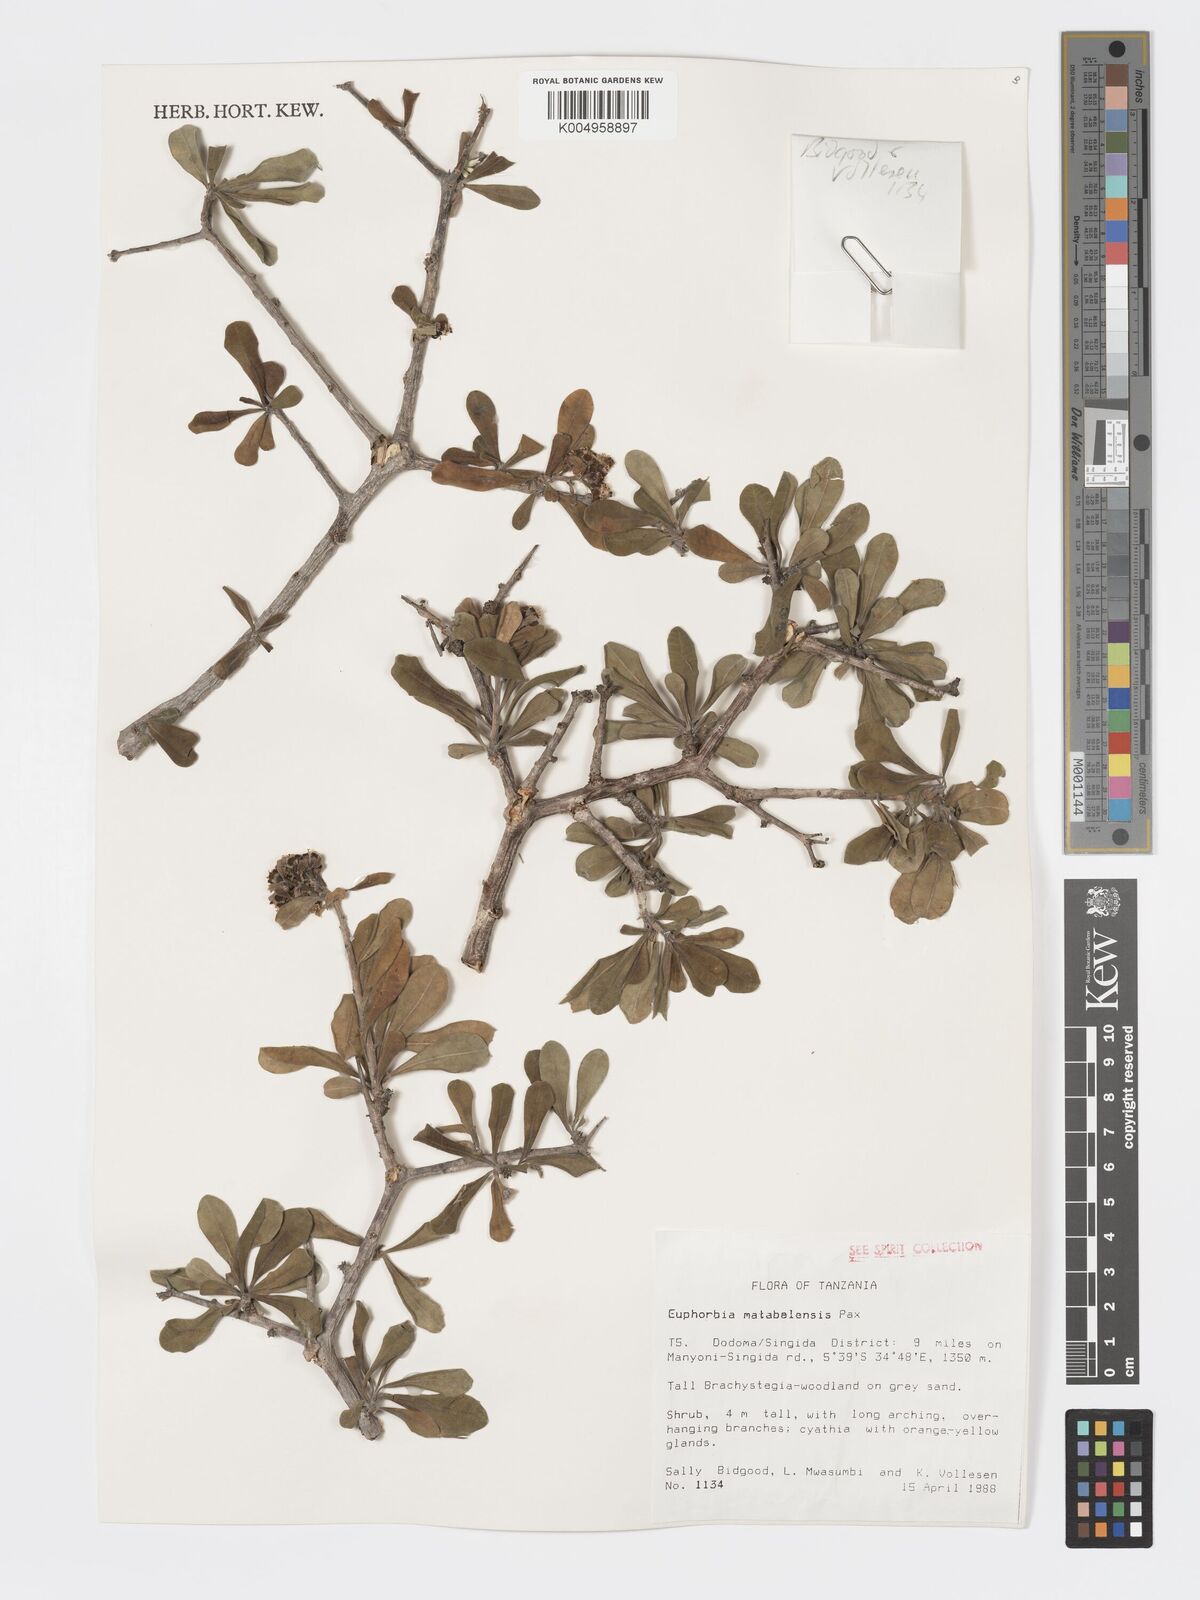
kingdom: Plantae
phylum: Tracheophyta
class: Magnoliopsida
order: Malpighiales
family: Euphorbiaceae
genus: Euphorbia
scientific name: Euphorbia matabelensis
